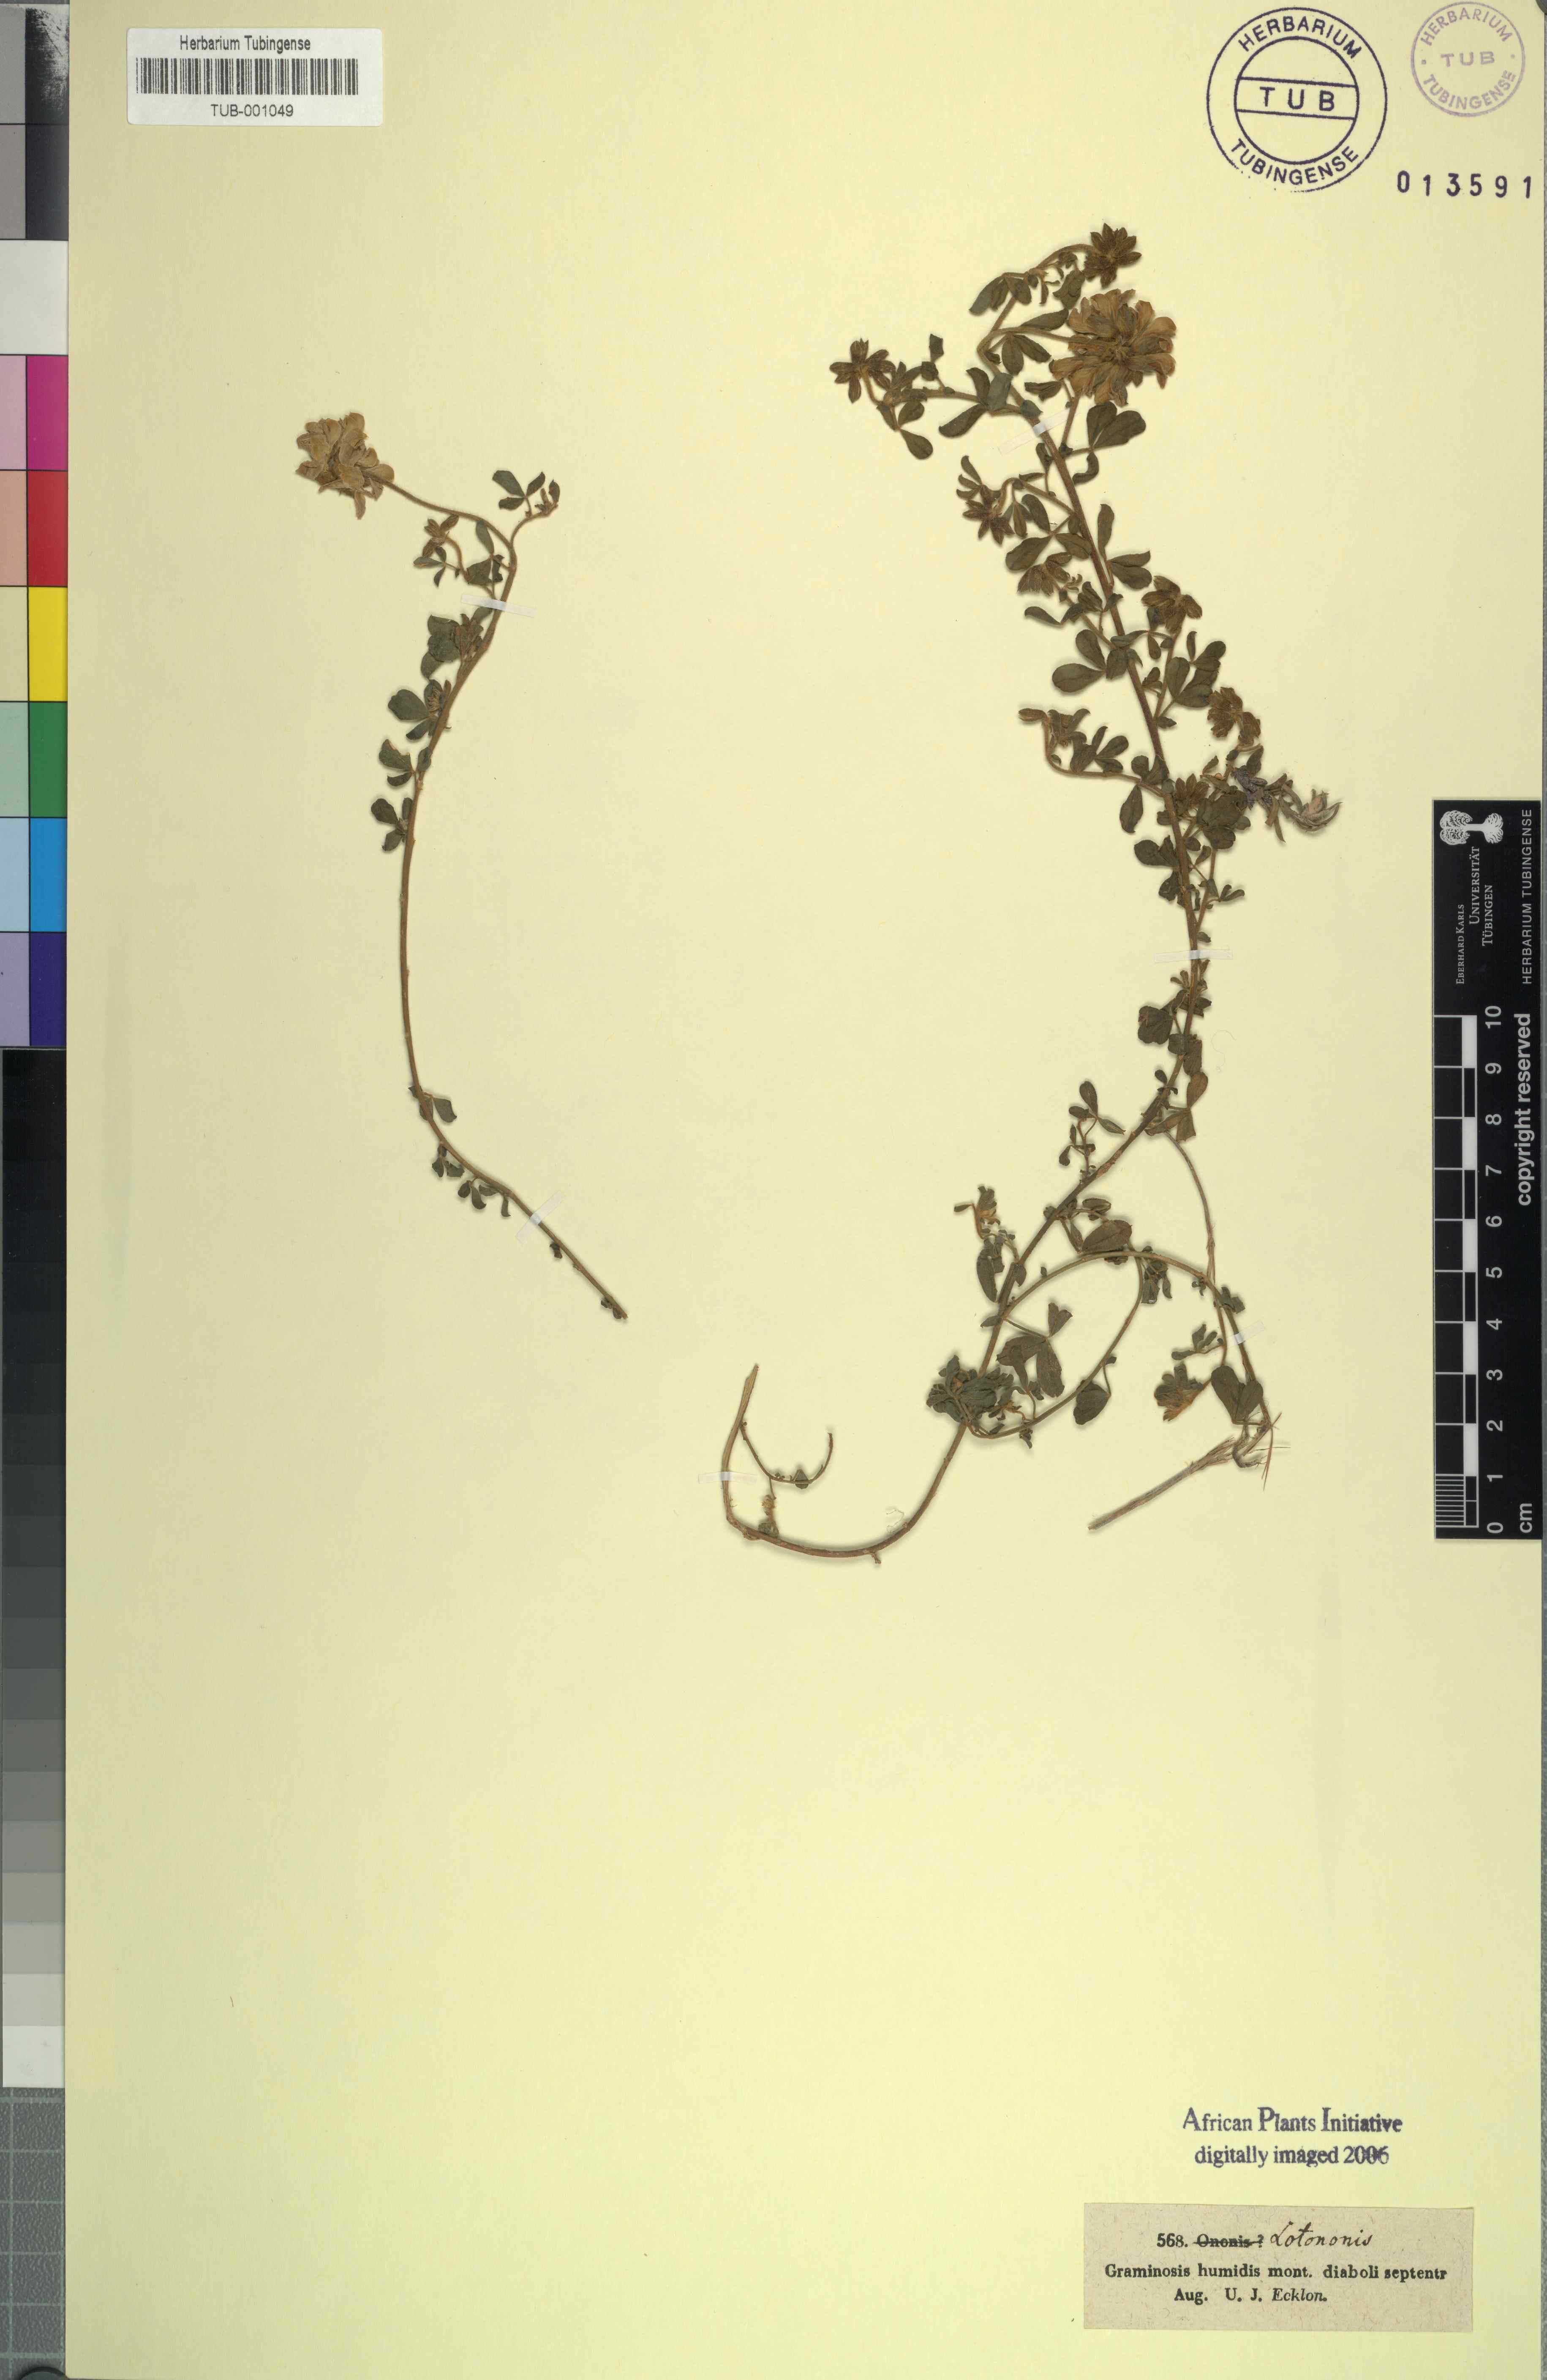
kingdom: Plantae
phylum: Tracheophyta
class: Magnoliopsida
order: Fabales
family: Fabaceae
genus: Lotononis
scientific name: Lotononis
